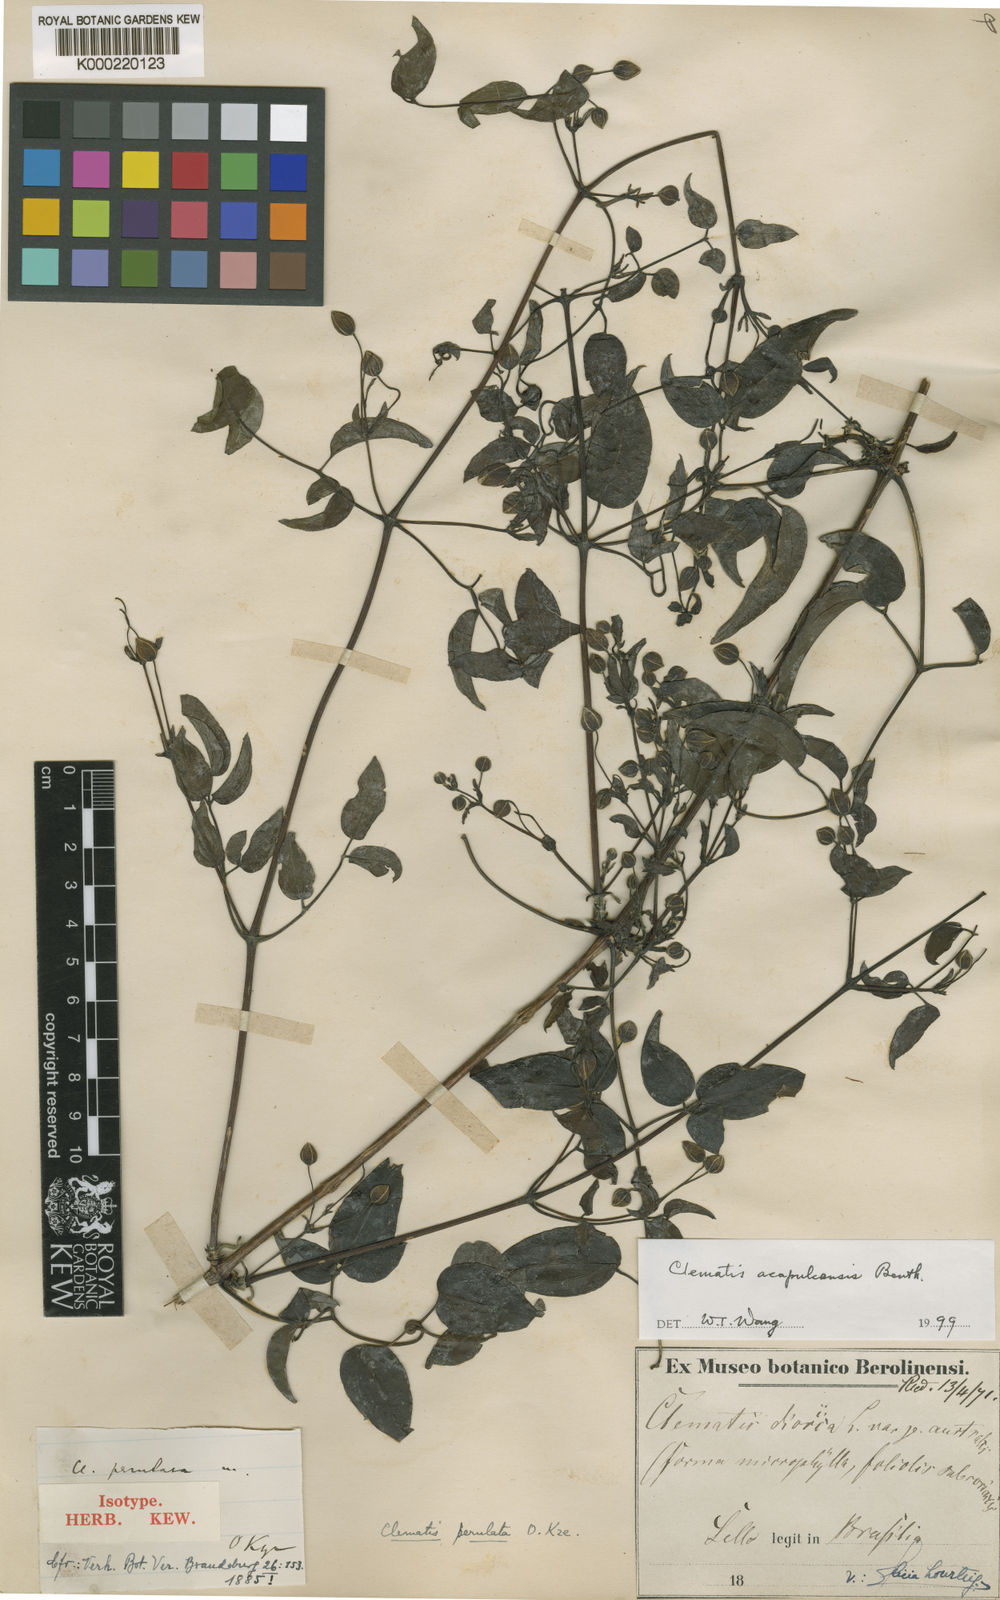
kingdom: Plantae
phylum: Tracheophyta
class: Magnoliopsida
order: Ranunculales
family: Ranunculaceae
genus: Clematis
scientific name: Clematis acapulcensis
